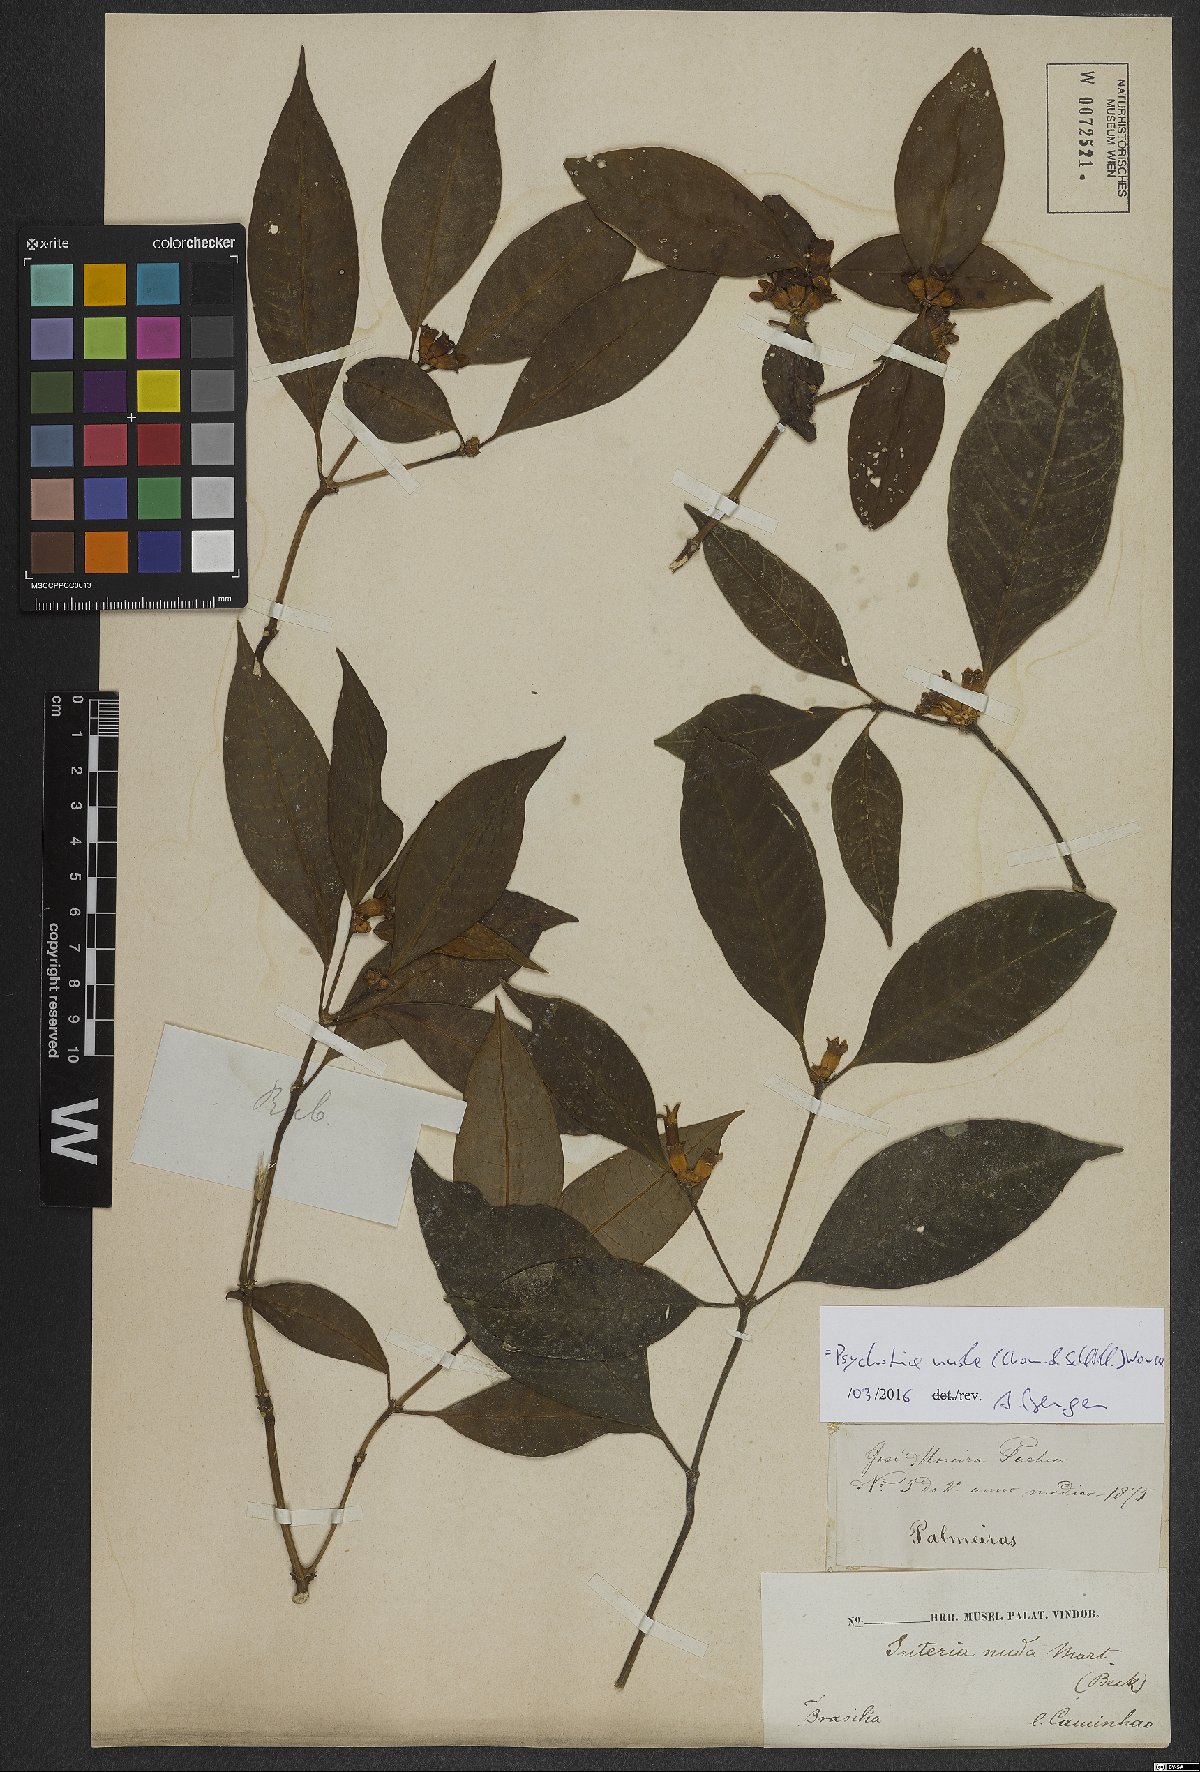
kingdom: Plantae
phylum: Tracheophyta
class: Magnoliopsida
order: Gentianales
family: Rubiaceae
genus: Psychotria
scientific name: Psychotria nuda
